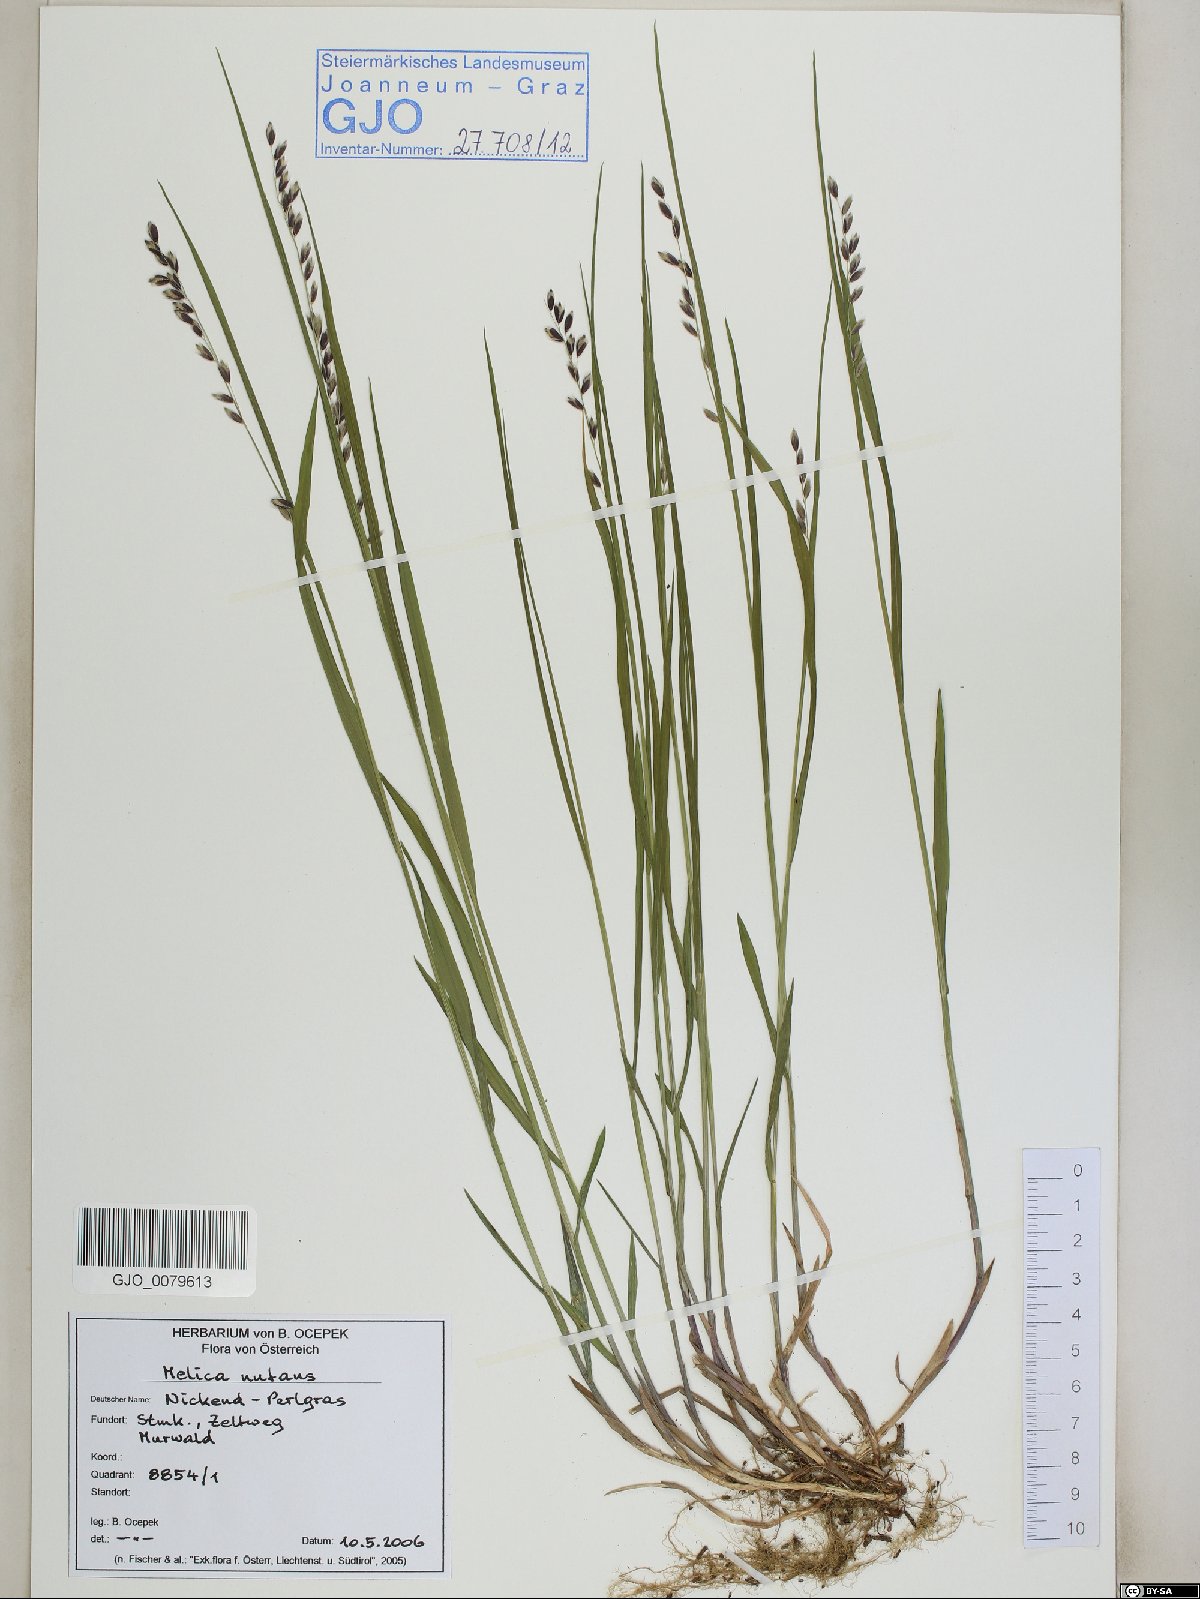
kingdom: Plantae
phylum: Tracheophyta
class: Liliopsida
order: Poales
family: Poaceae
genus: Melica
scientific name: Melica nutans
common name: Mountain melick
